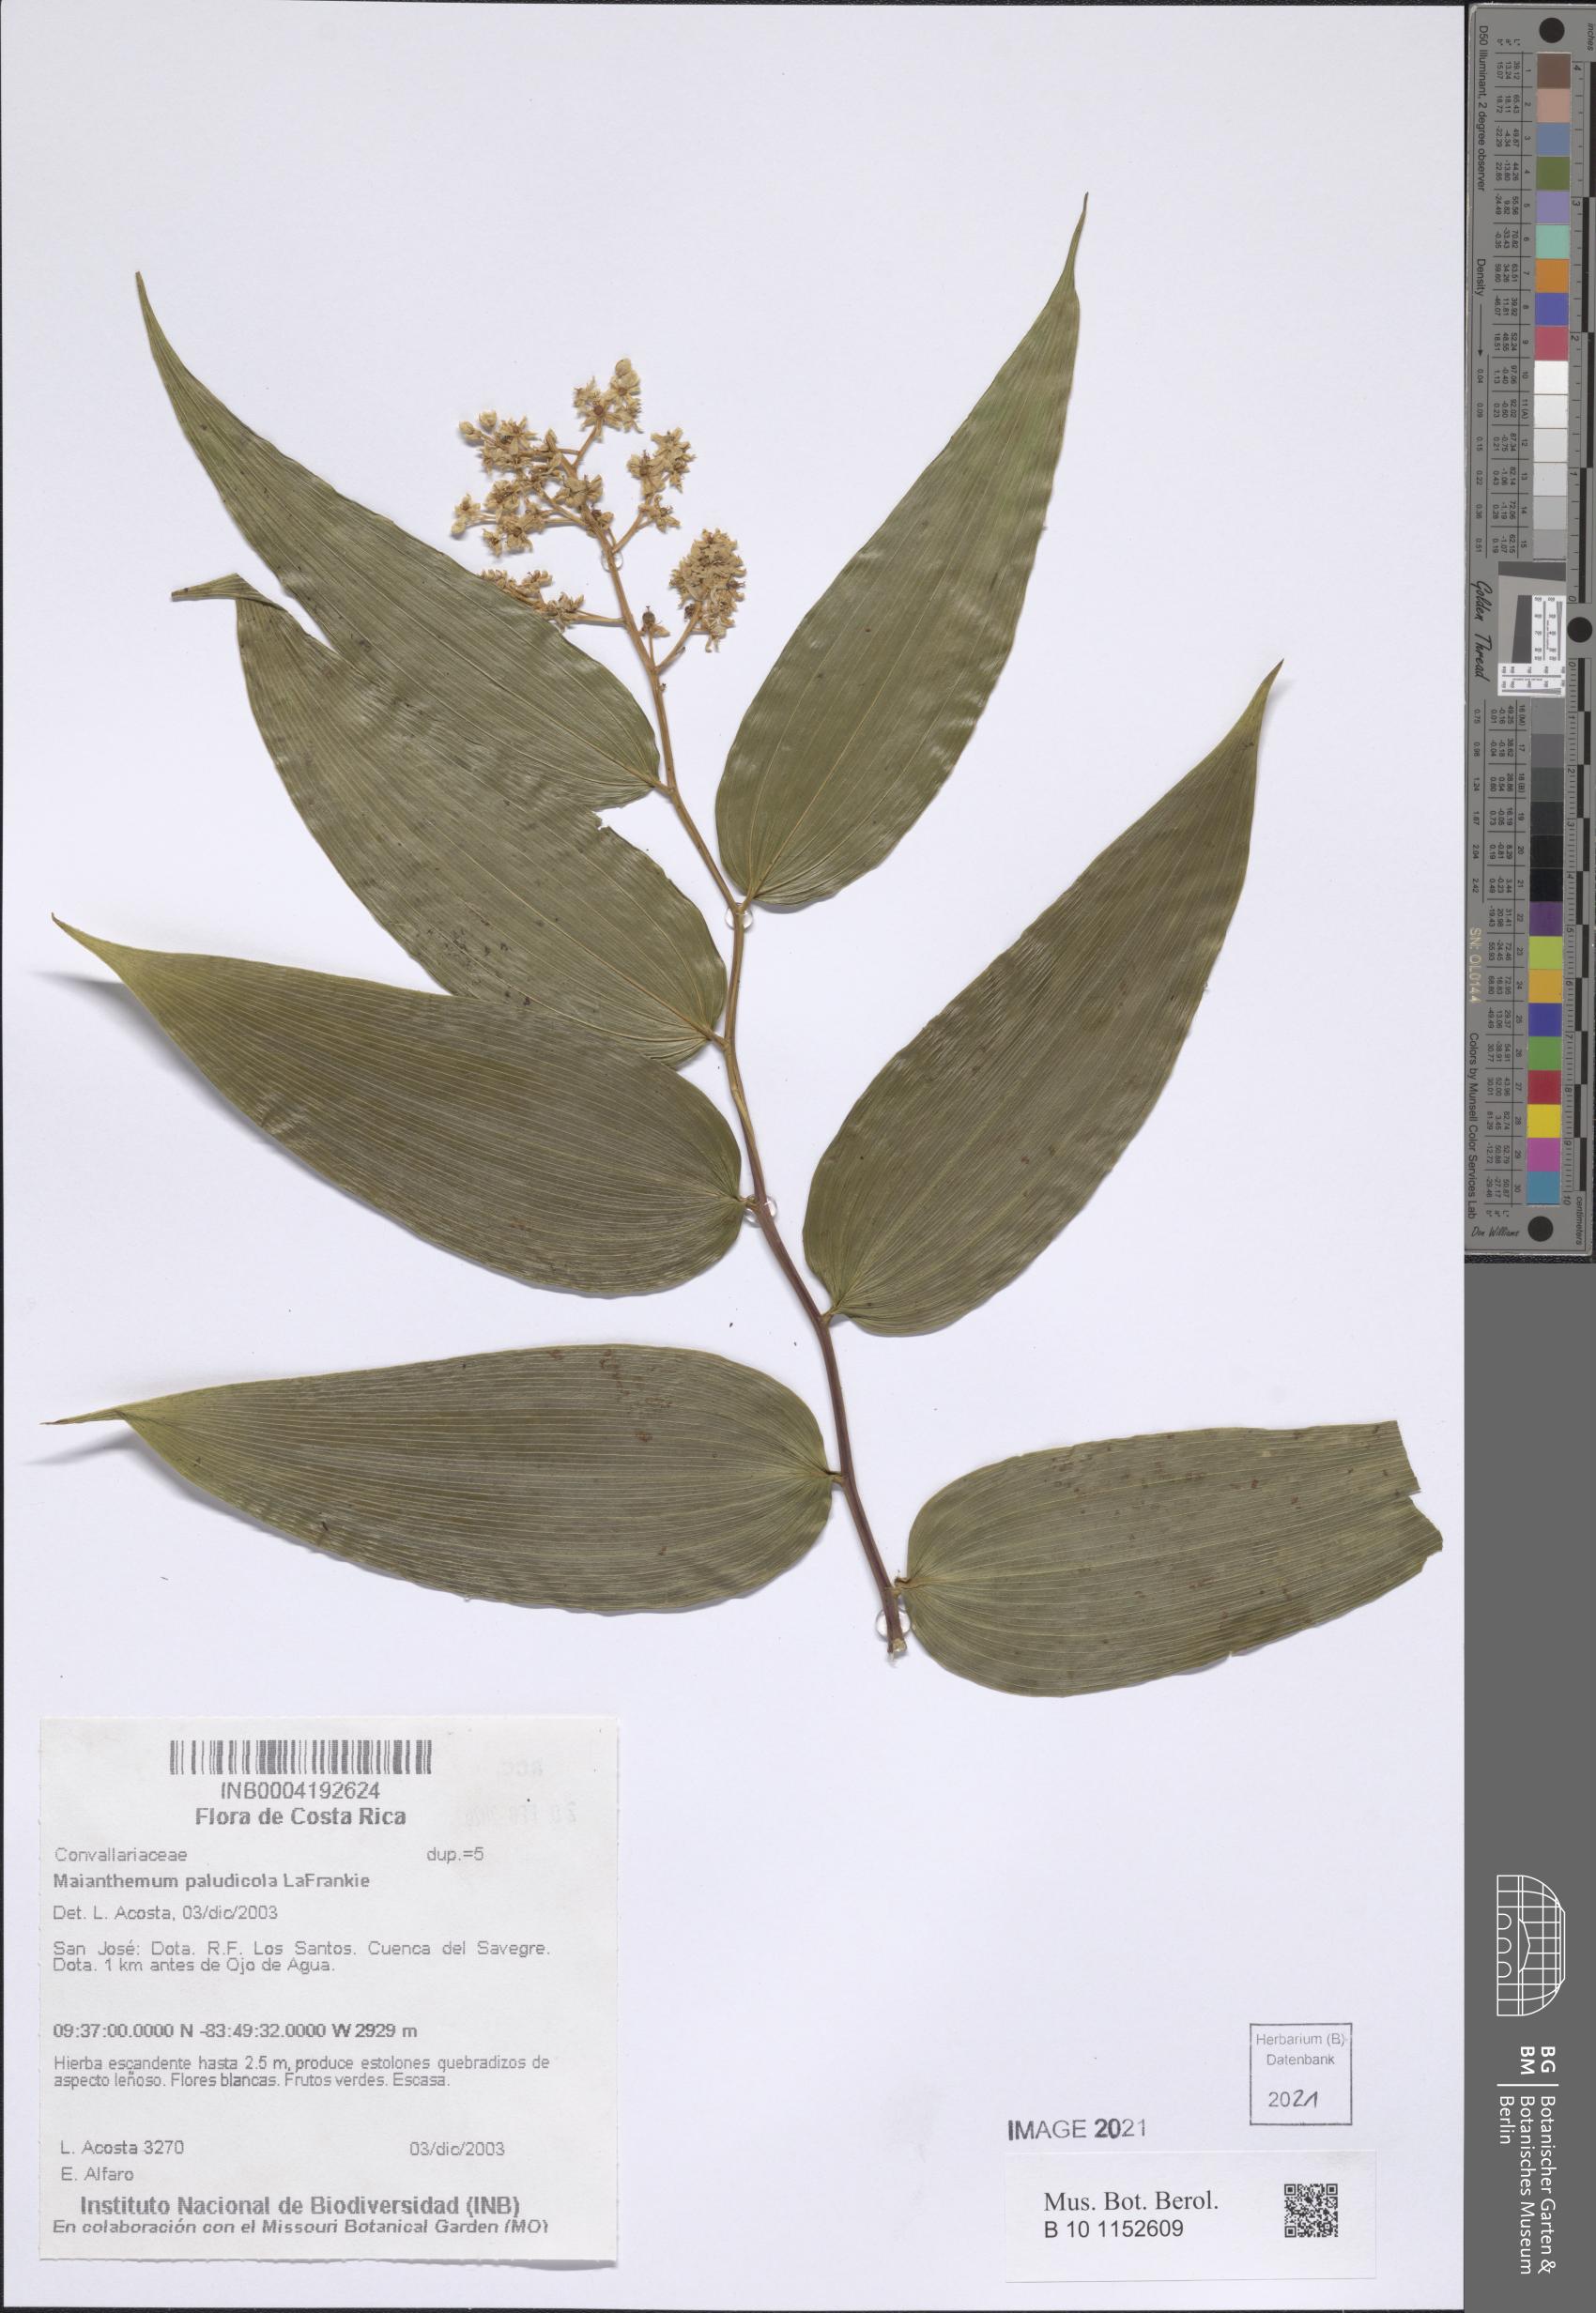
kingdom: Plantae
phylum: Tracheophyta
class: Liliopsida
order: Asparagales
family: Asparagaceae
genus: Maianthemum
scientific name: Maianthemum paludicola
